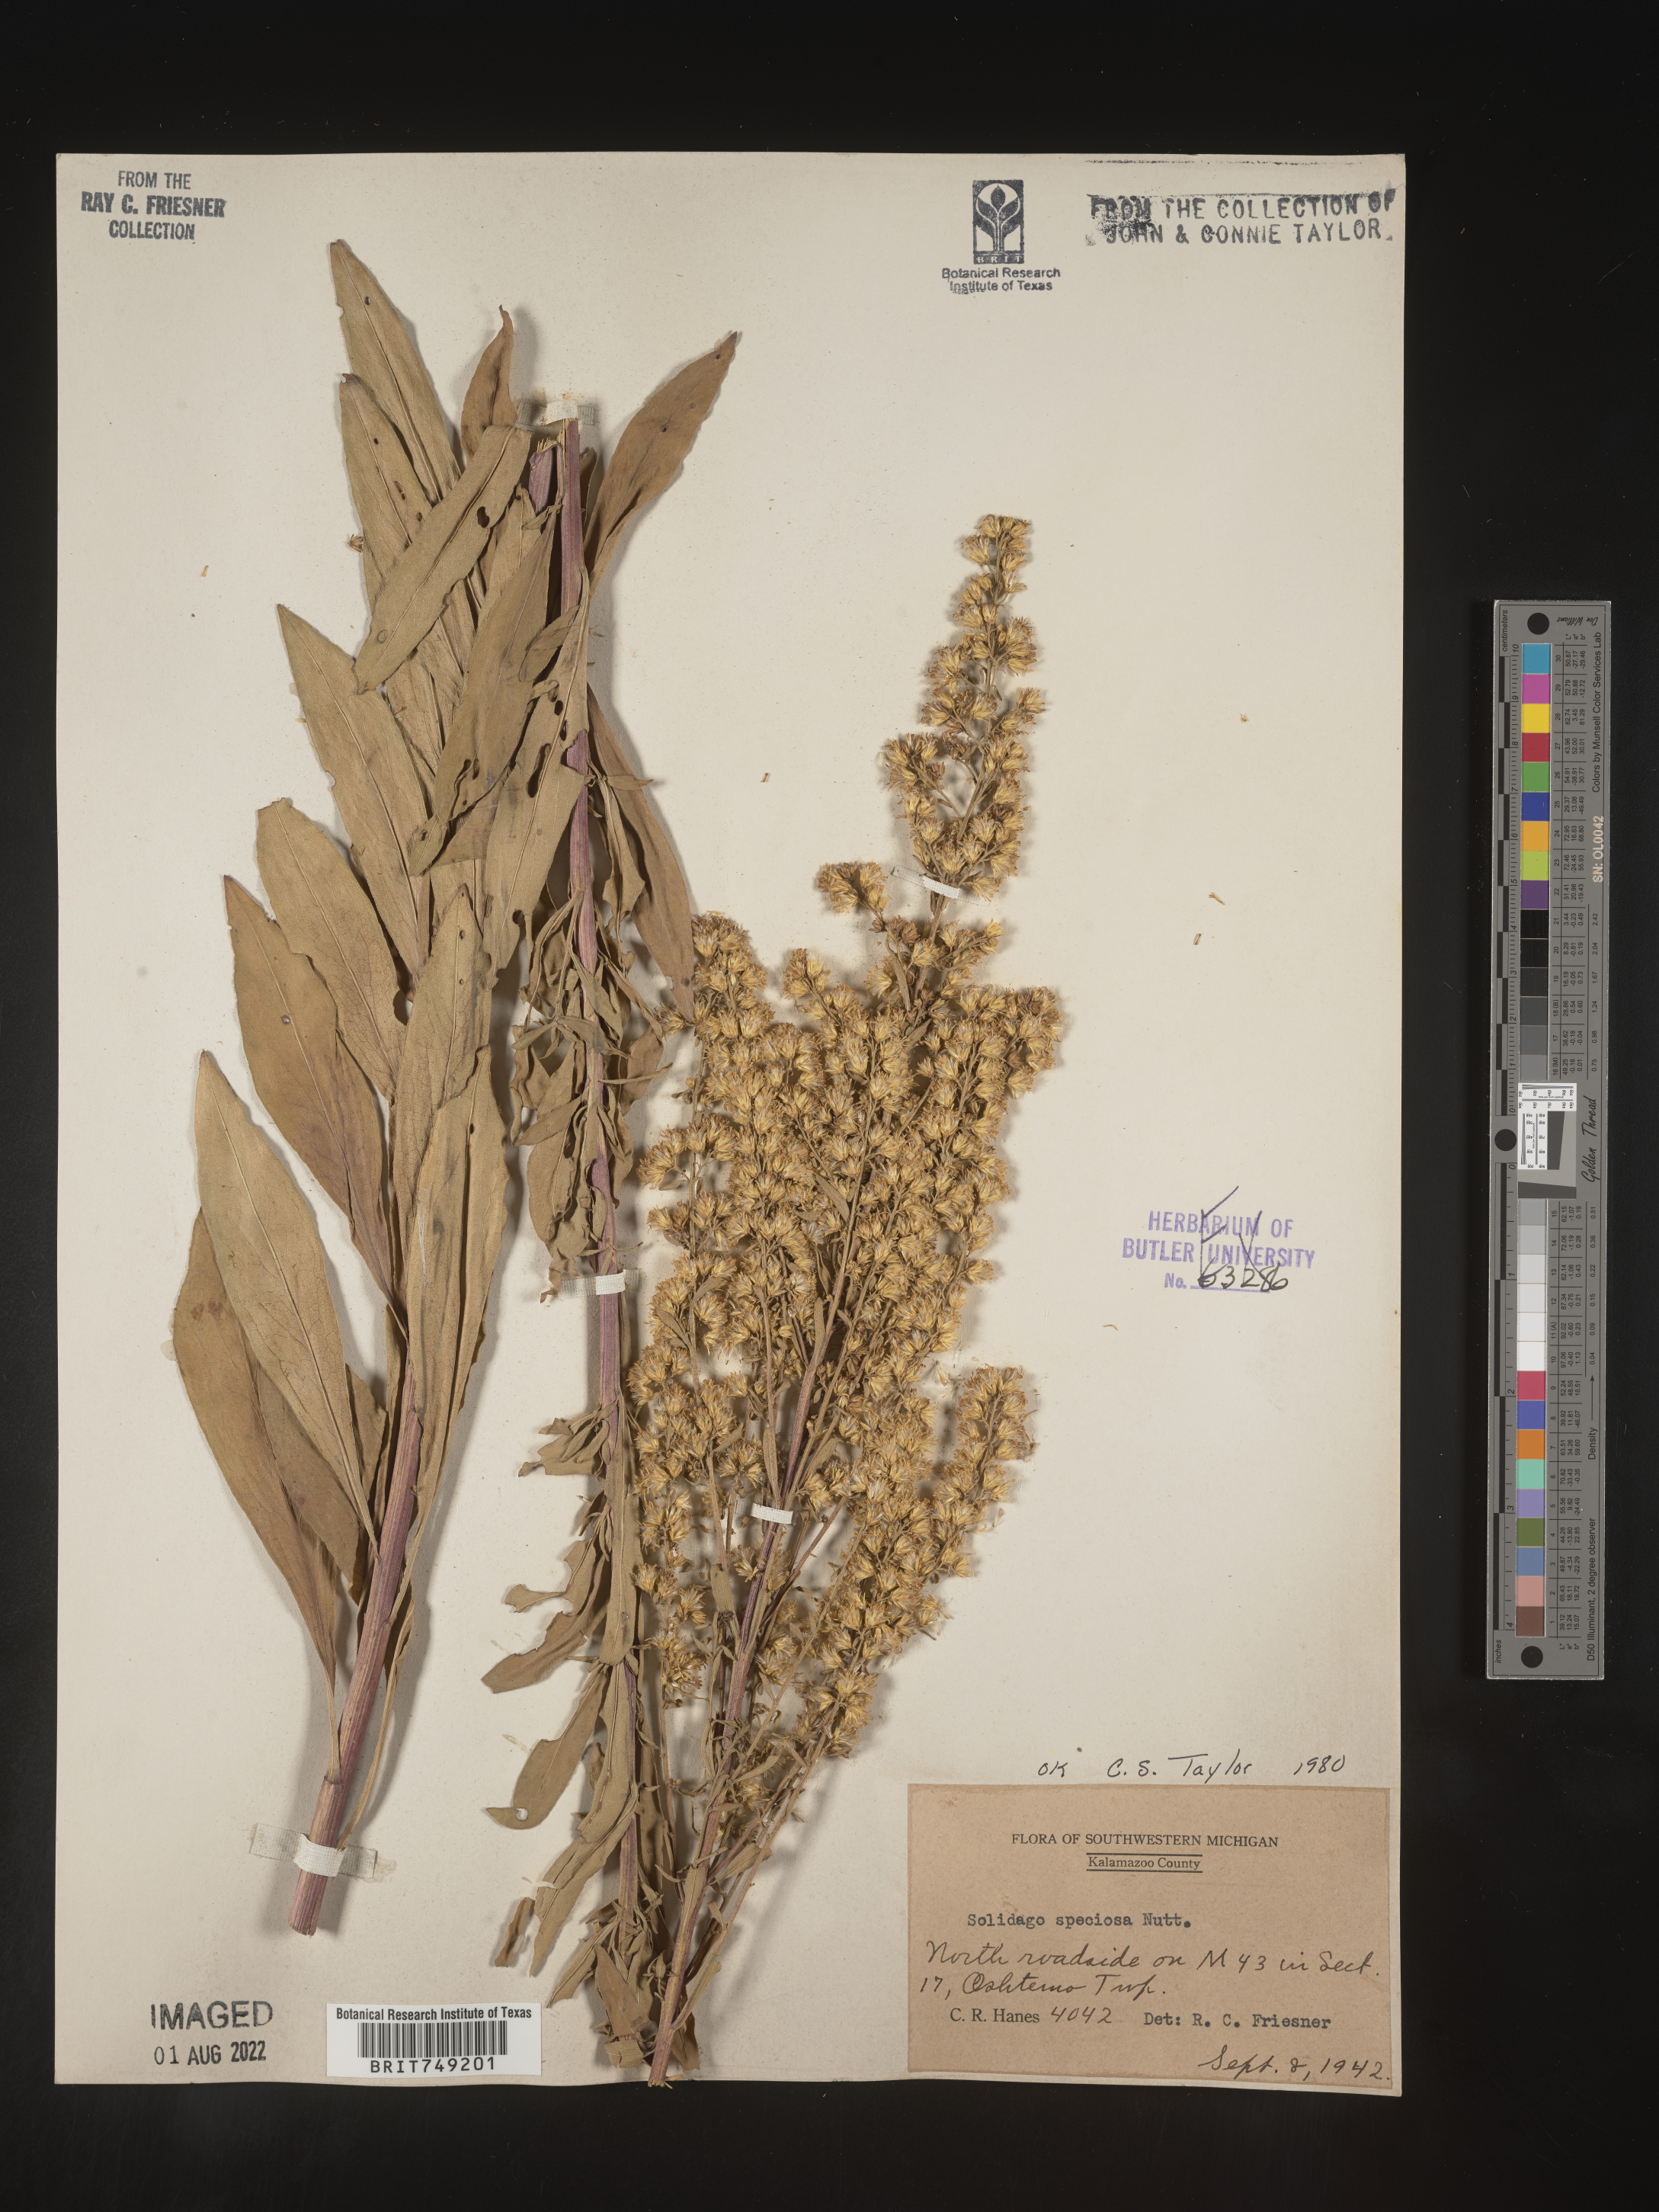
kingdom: Plantae
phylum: Tracheophyta
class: Magnoliopsida
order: Asterales
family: Asteraceae
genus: Solidago
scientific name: Solidago speciosa
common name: Showy goldenrod
